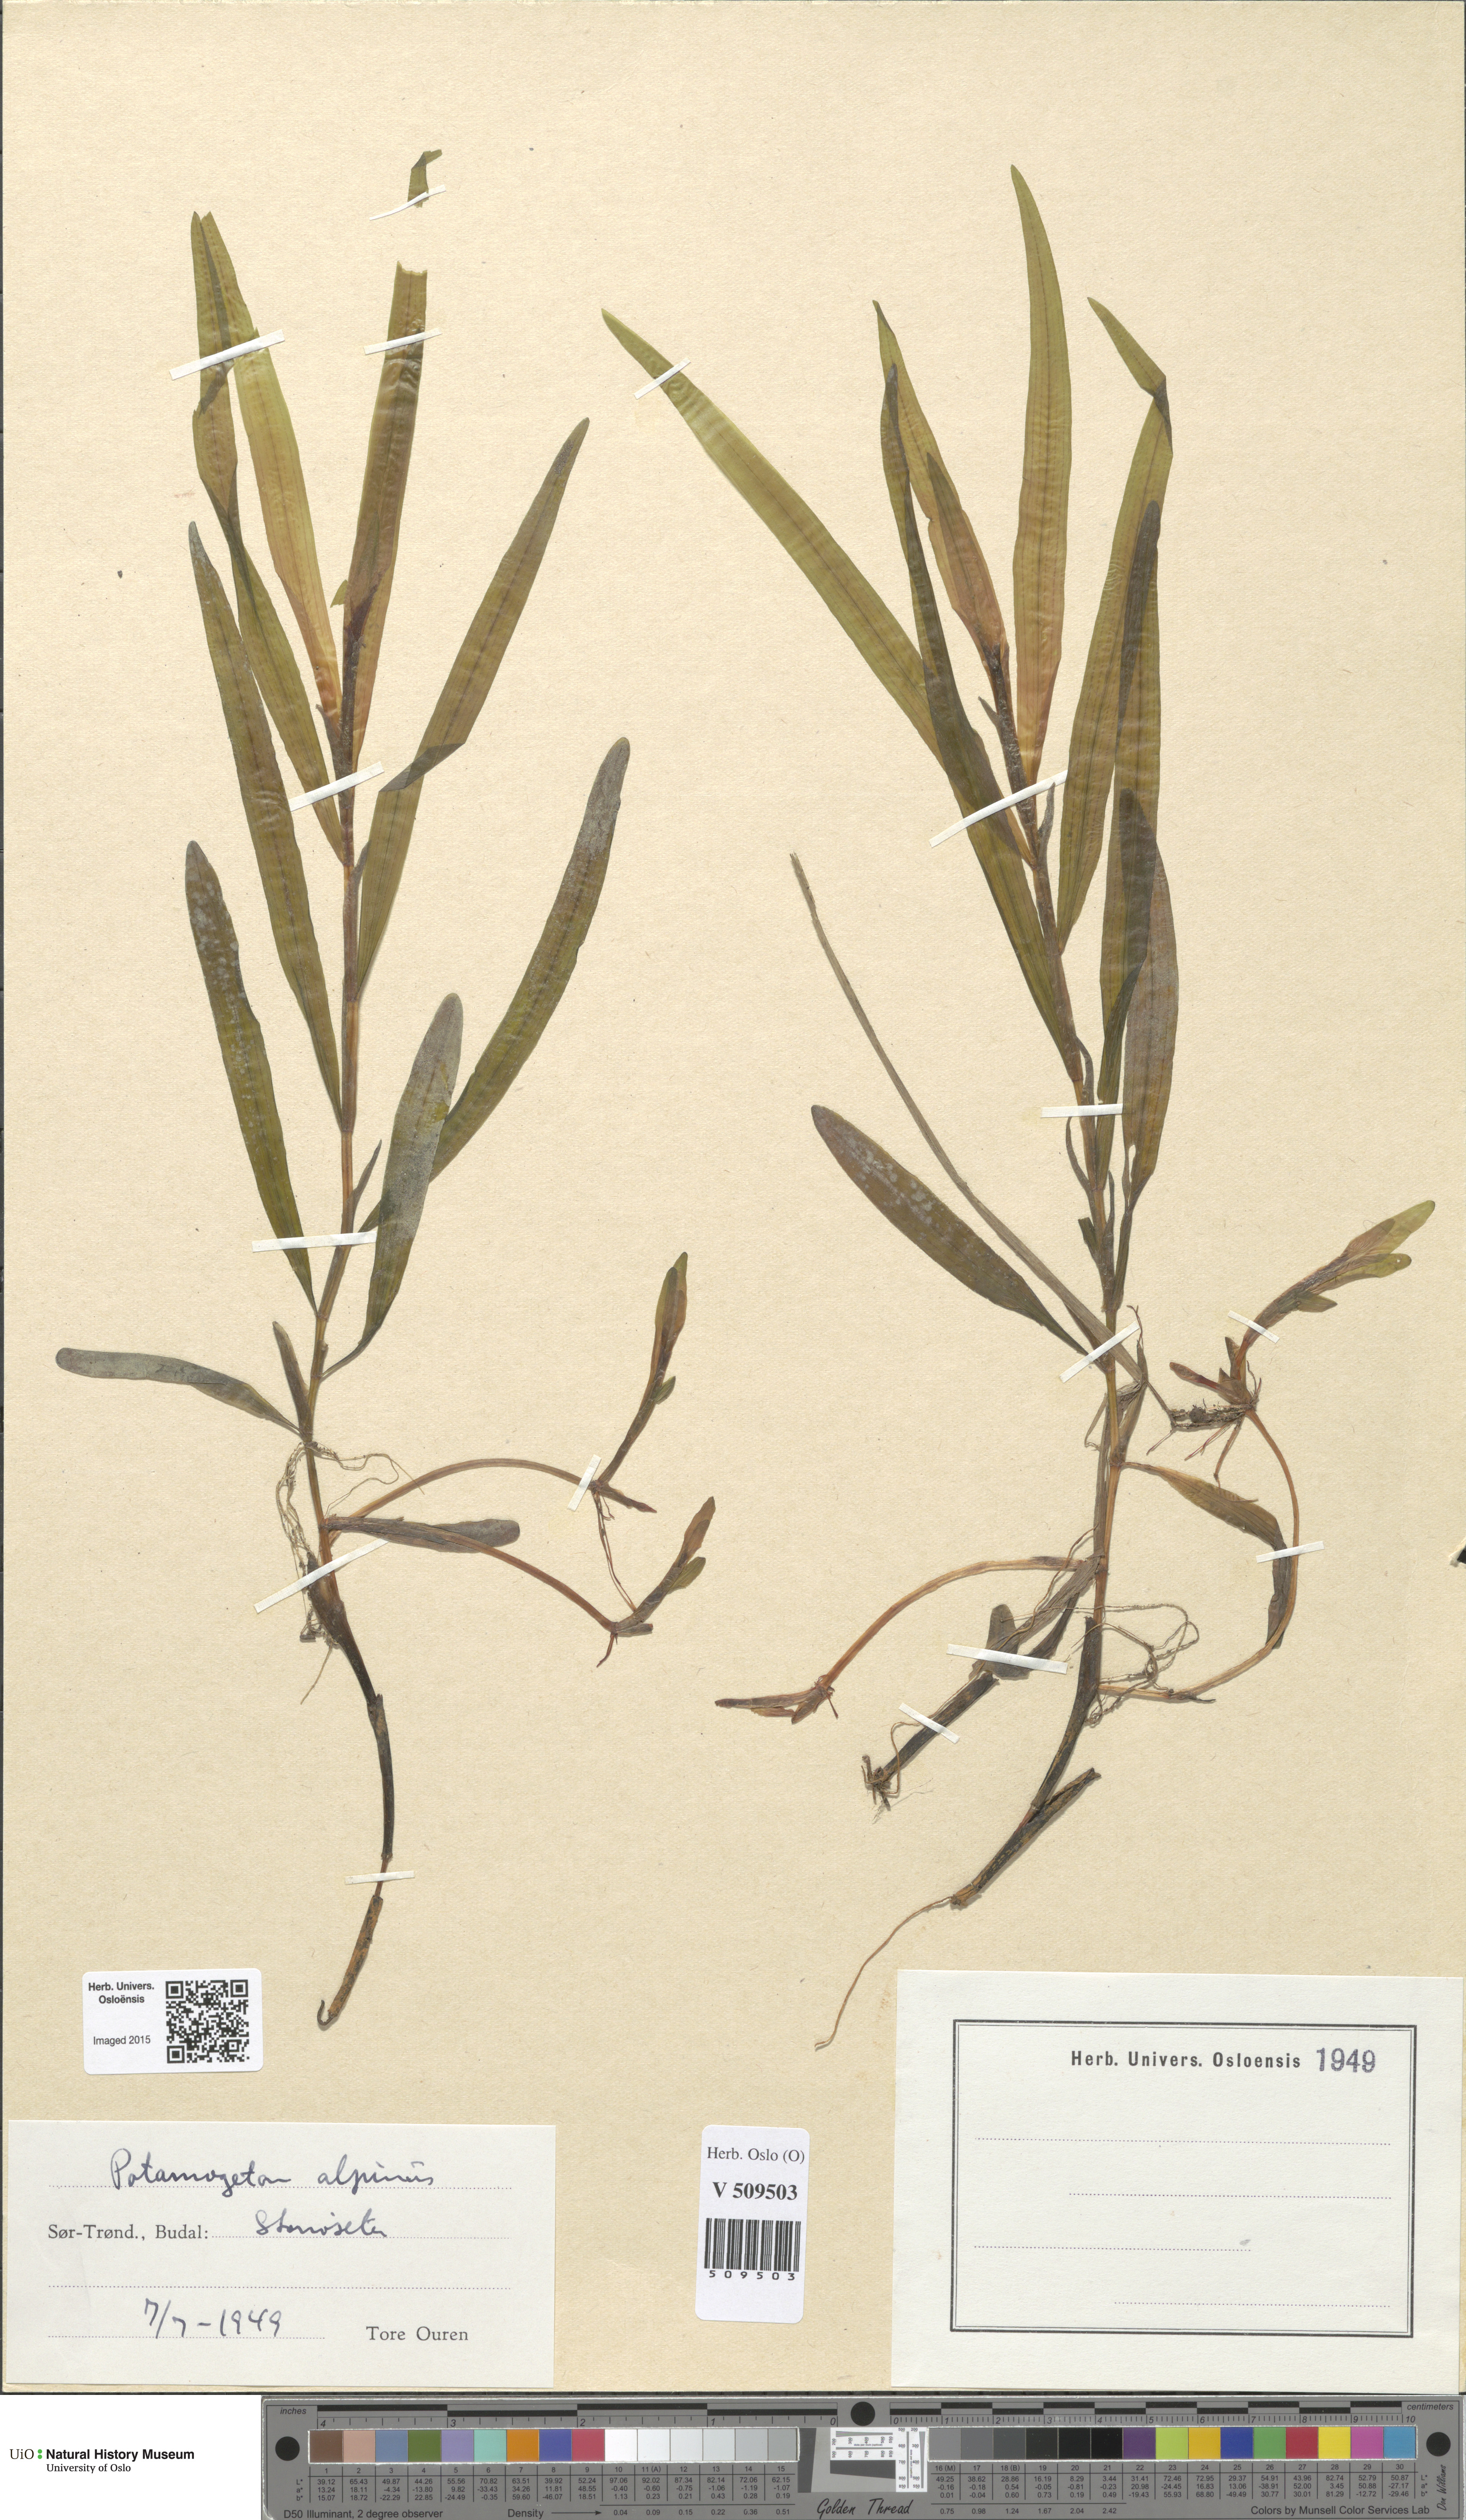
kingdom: Plantae
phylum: Tracheophyta
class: Liliopsida
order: Alismatales
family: Potamogetonaceae
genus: Potamogeton
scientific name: Potamogeton alpinus
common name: Red pondweed
